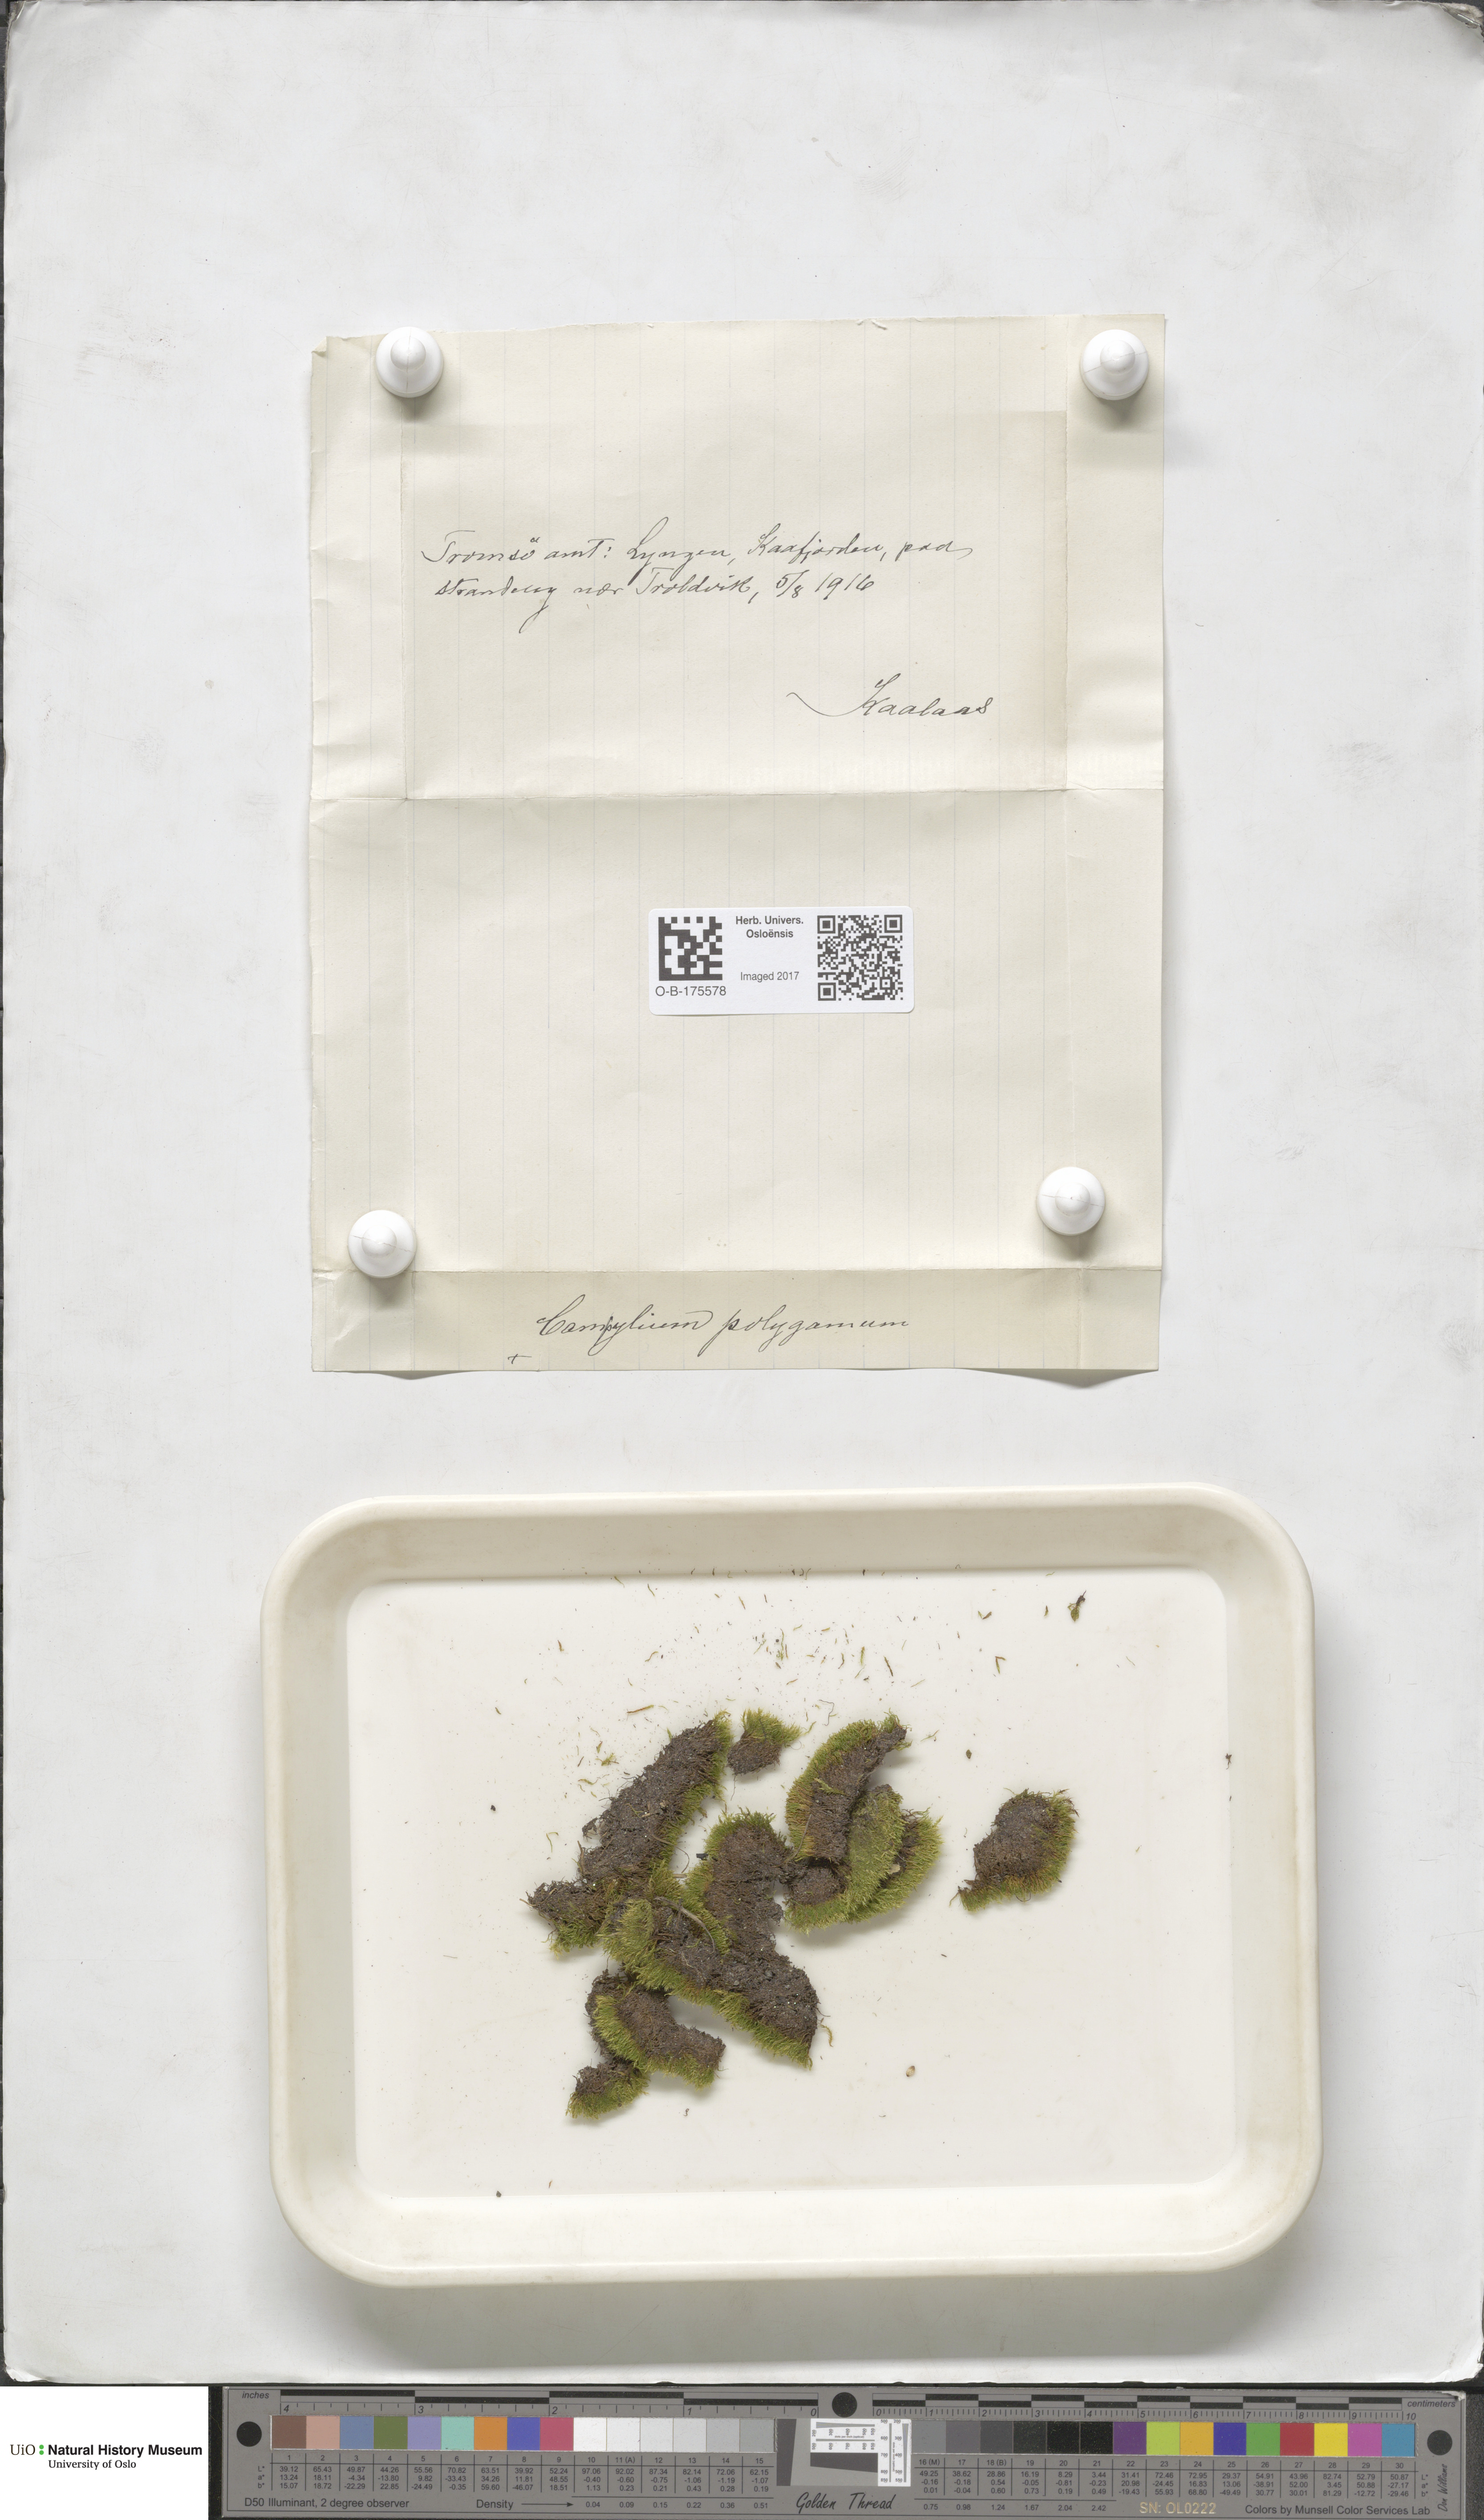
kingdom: Plantae
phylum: Bryophyta
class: Bryopsida
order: Hypnales
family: Amblystegiaceae
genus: Drepanocladus
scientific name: Drepanocladus polygamus
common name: Polygamous hook moss
